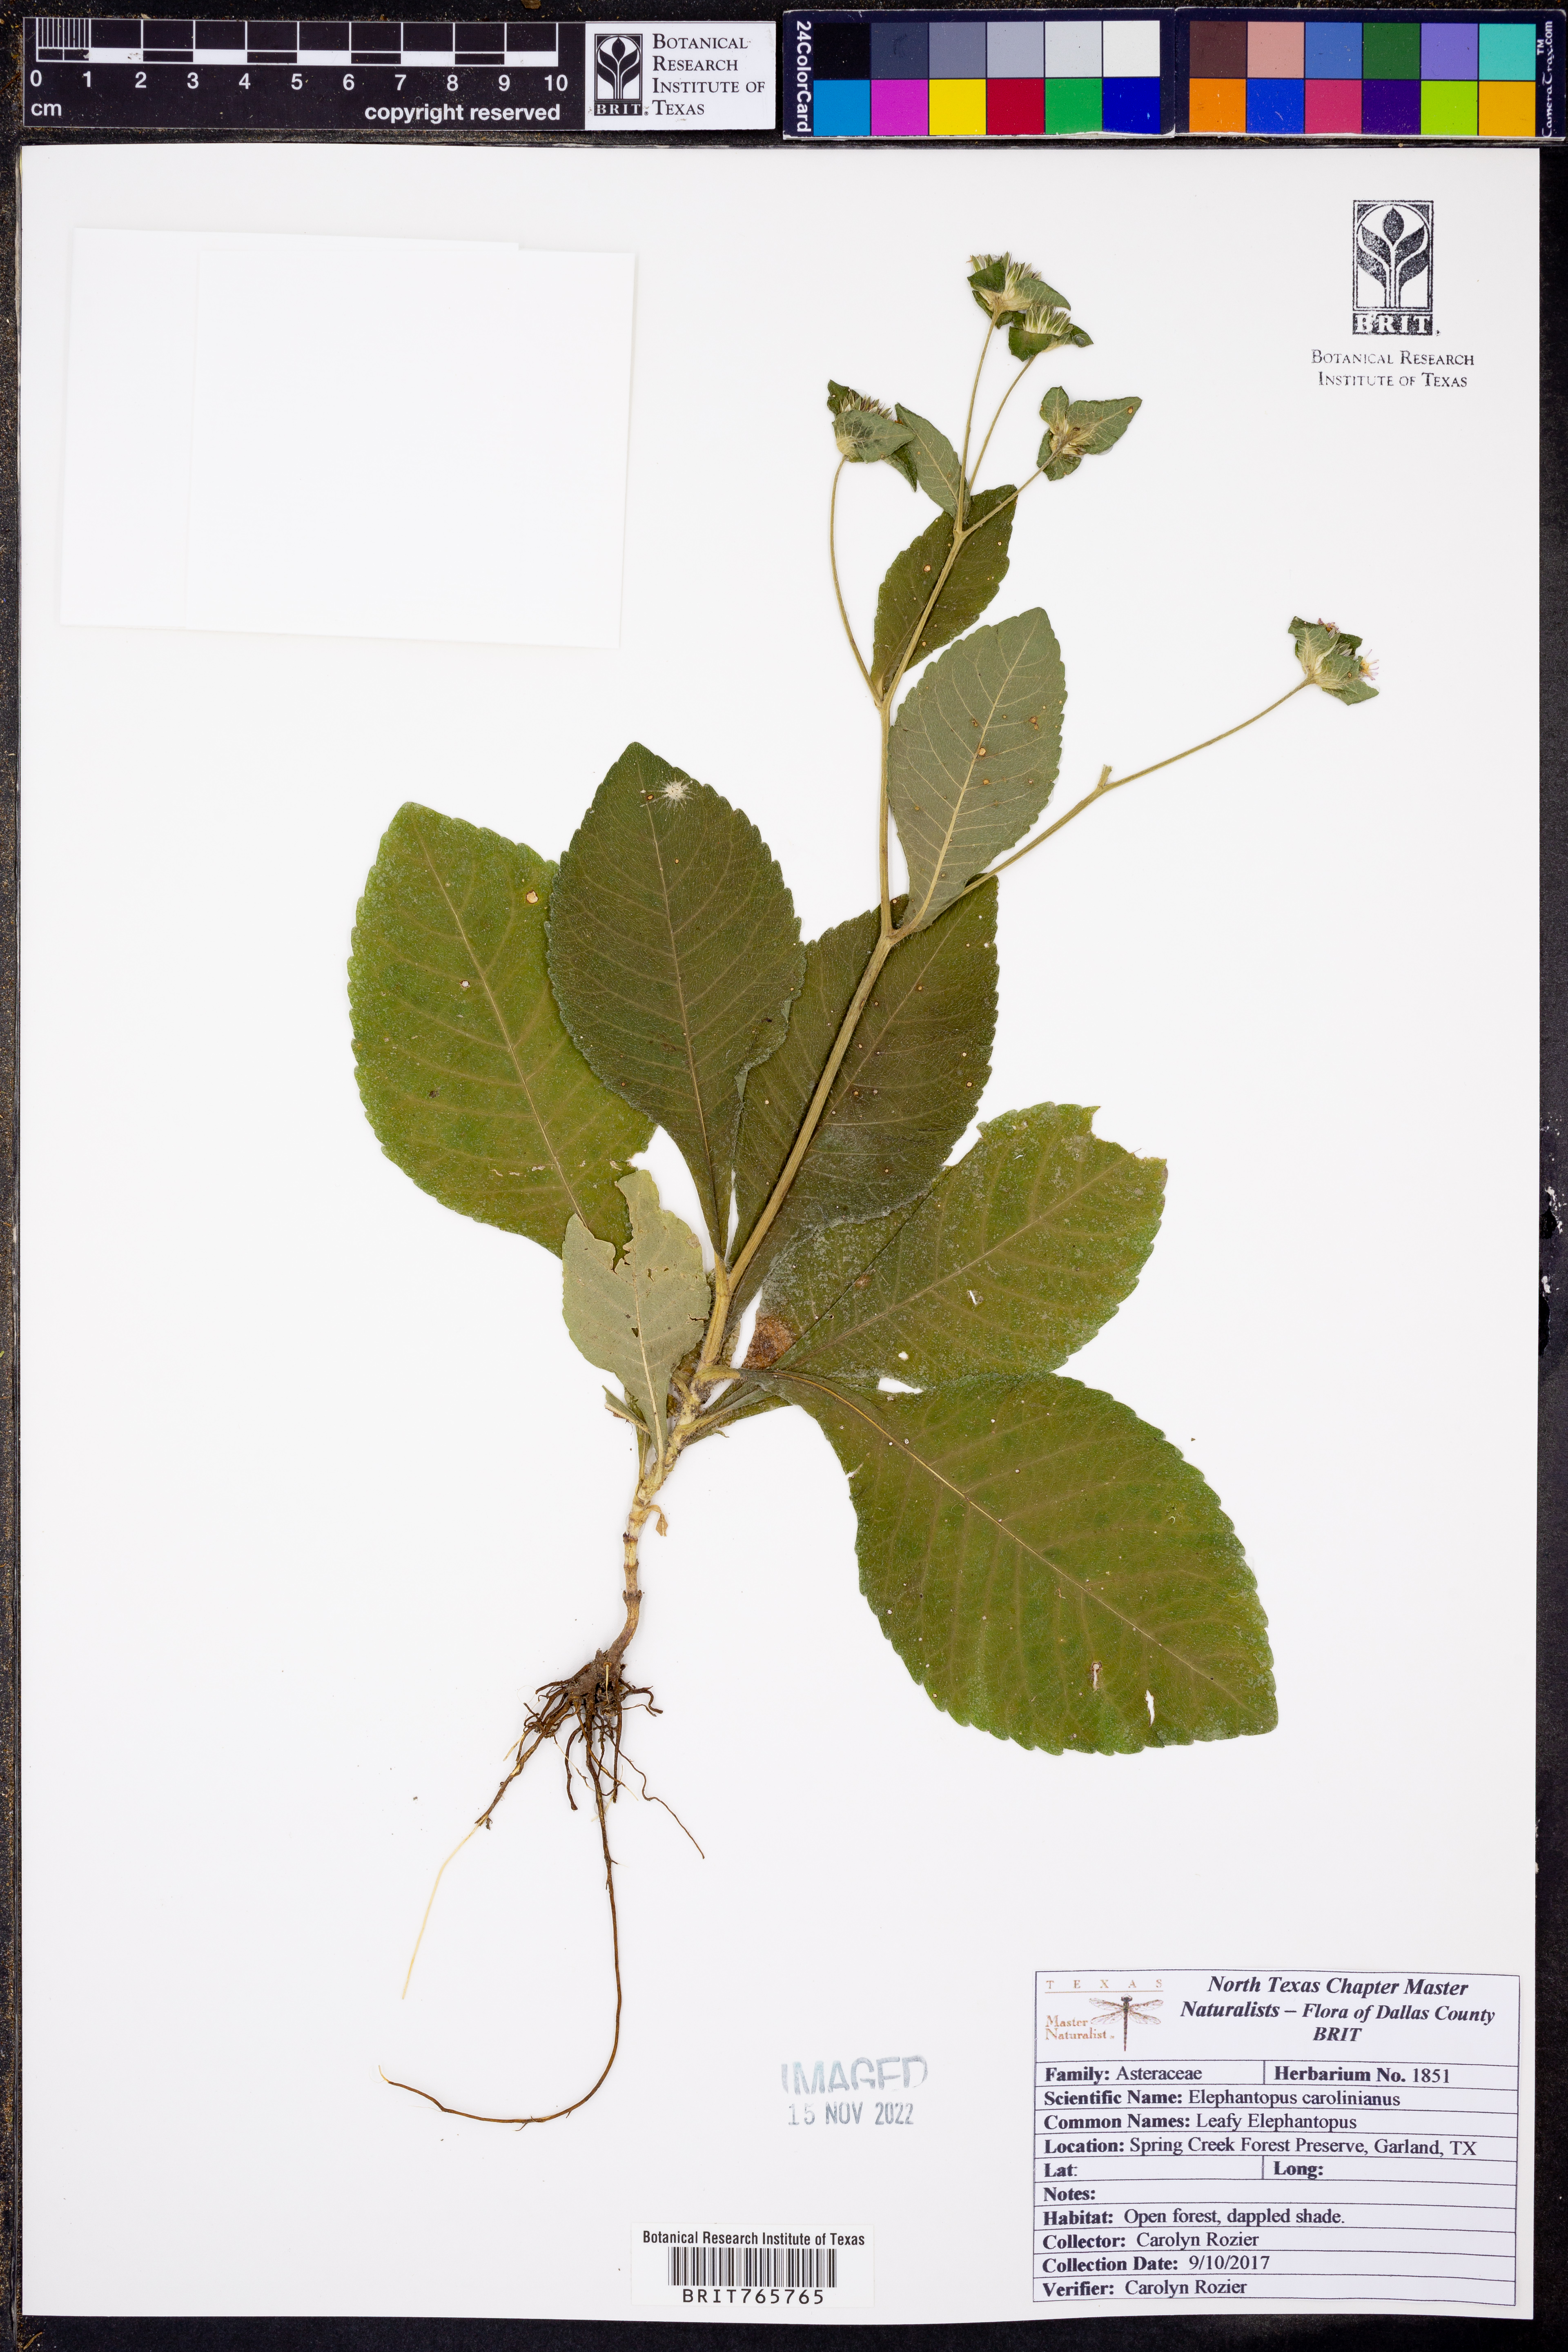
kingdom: Plantae
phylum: Tracheophyta
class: Magnoliopsida
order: Asterales
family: Asteraceae
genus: Elephantopus
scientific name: Elephantopus carolinianus
